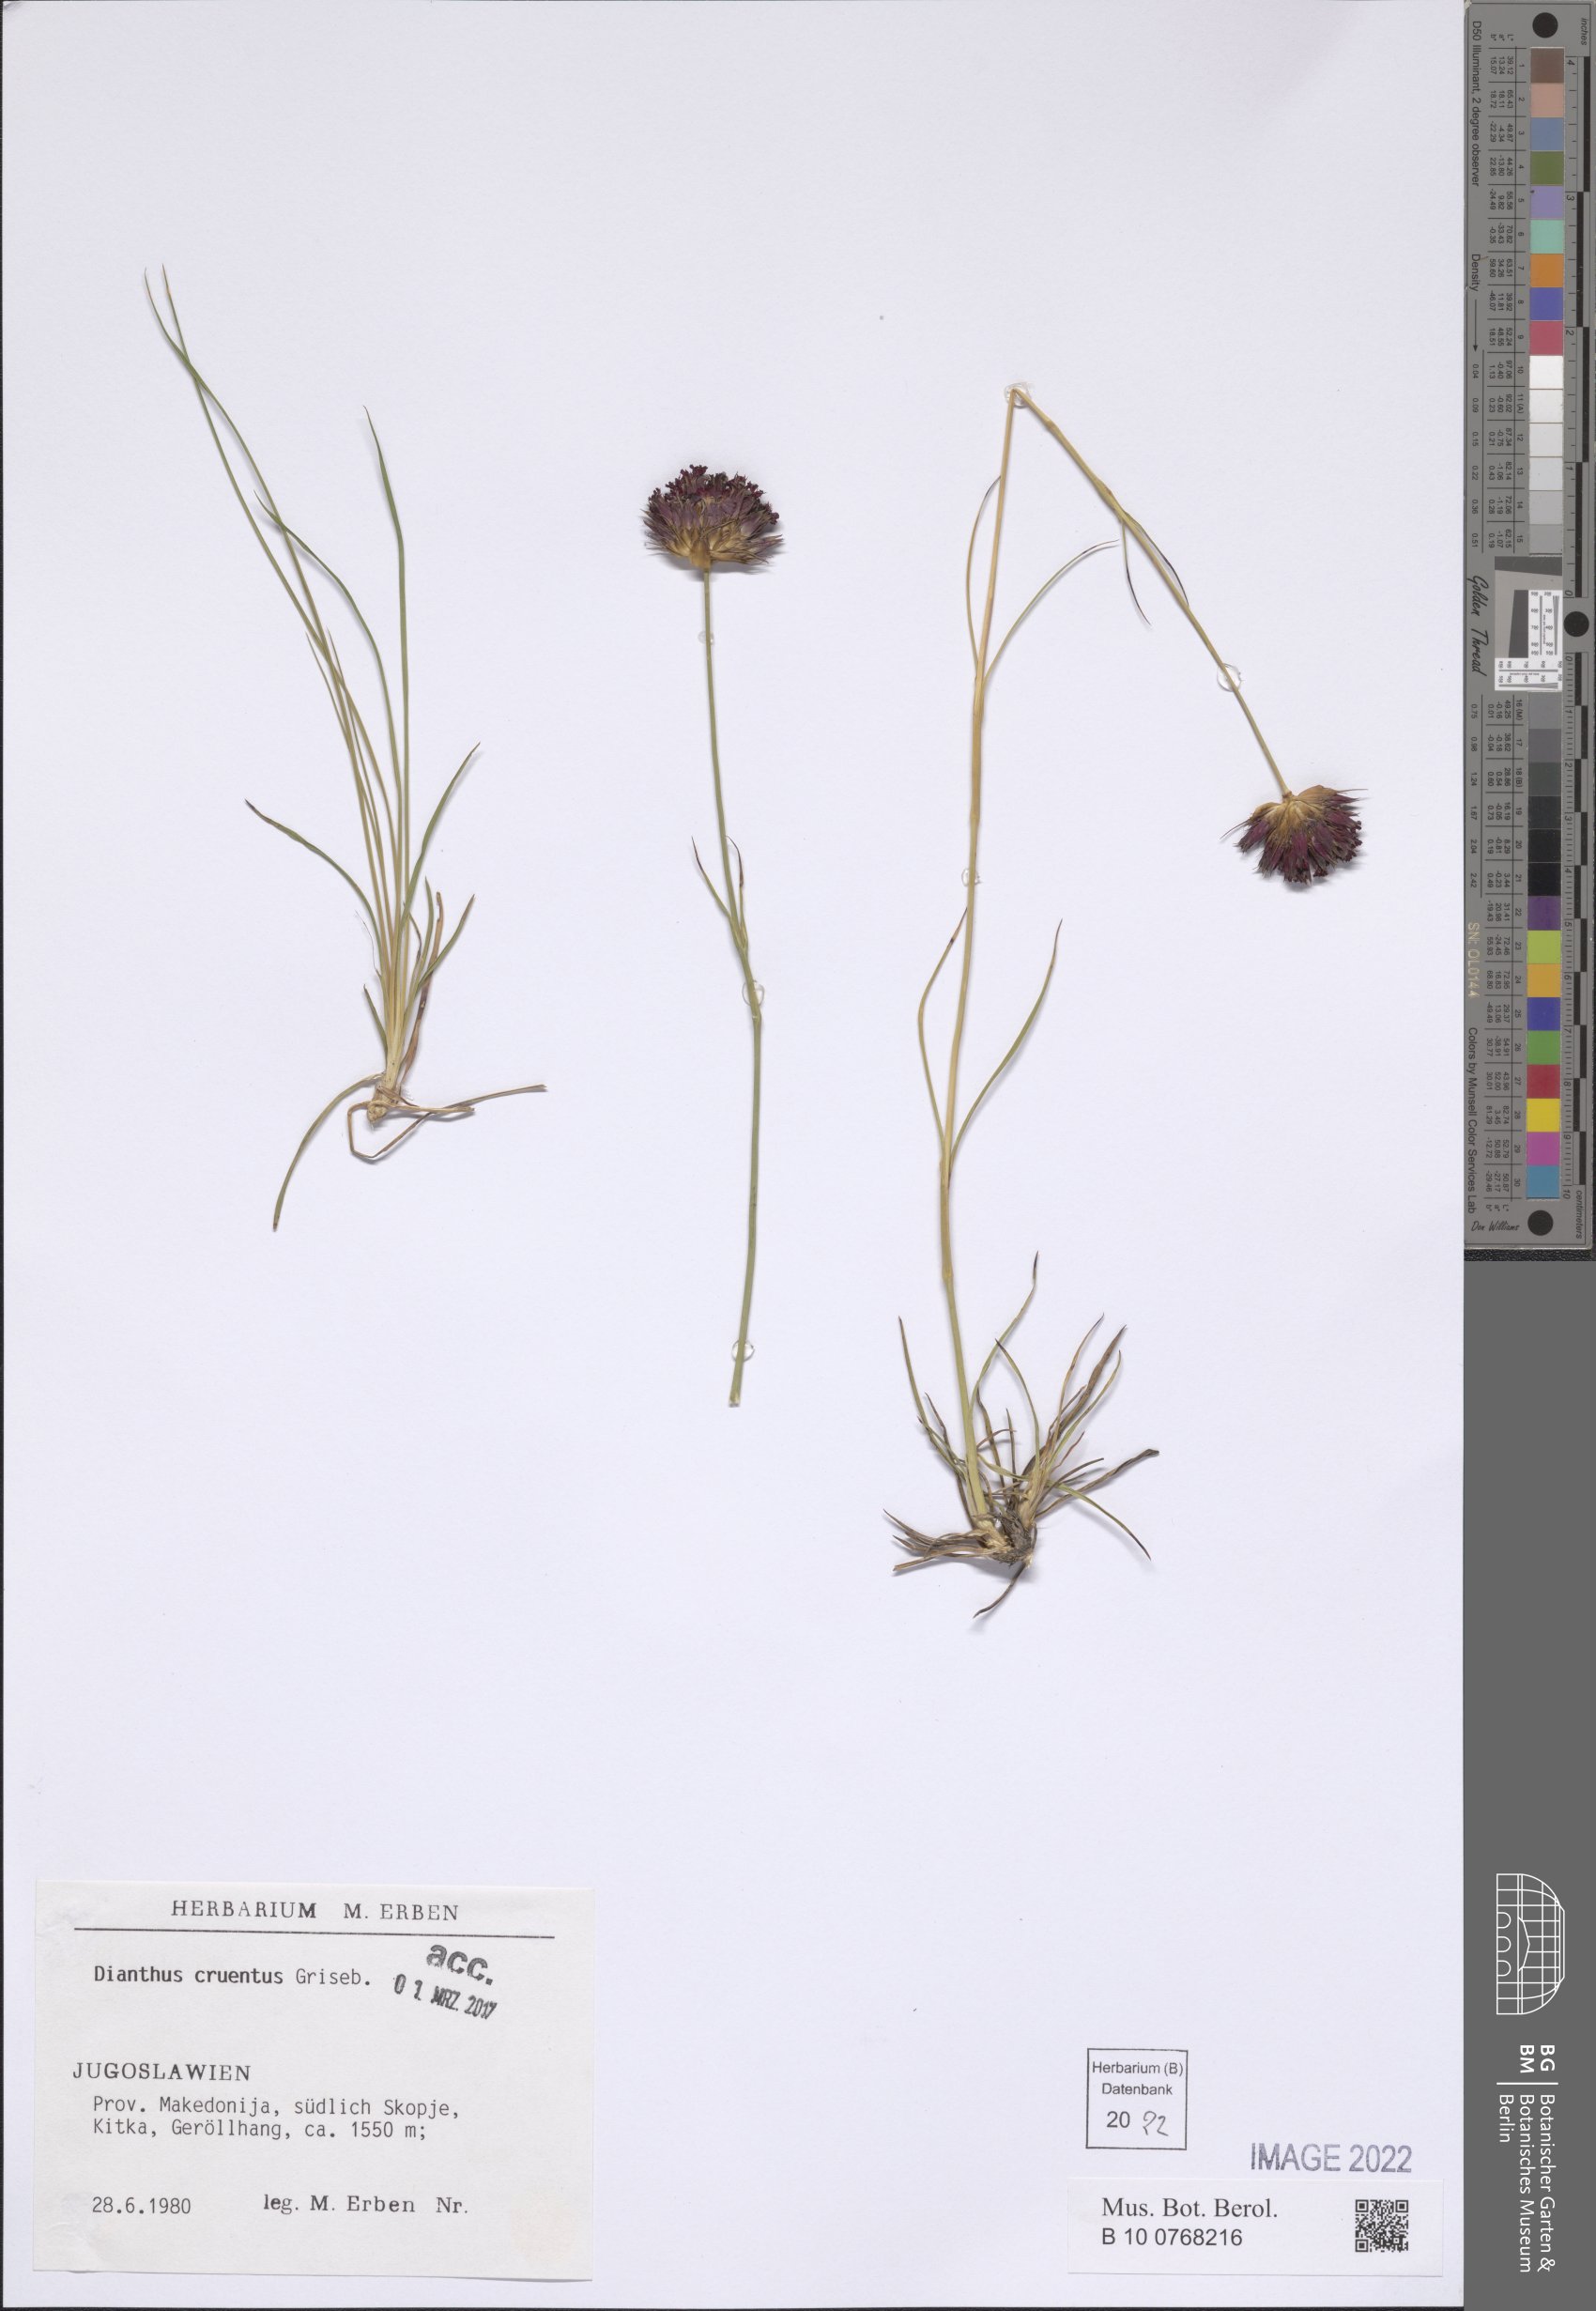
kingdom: Plantae
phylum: Tracheophyta
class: Magnoliopsida
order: Caryophyllales
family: Caryophyllaceae
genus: Dianthus
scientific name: Dianthus cruentus
